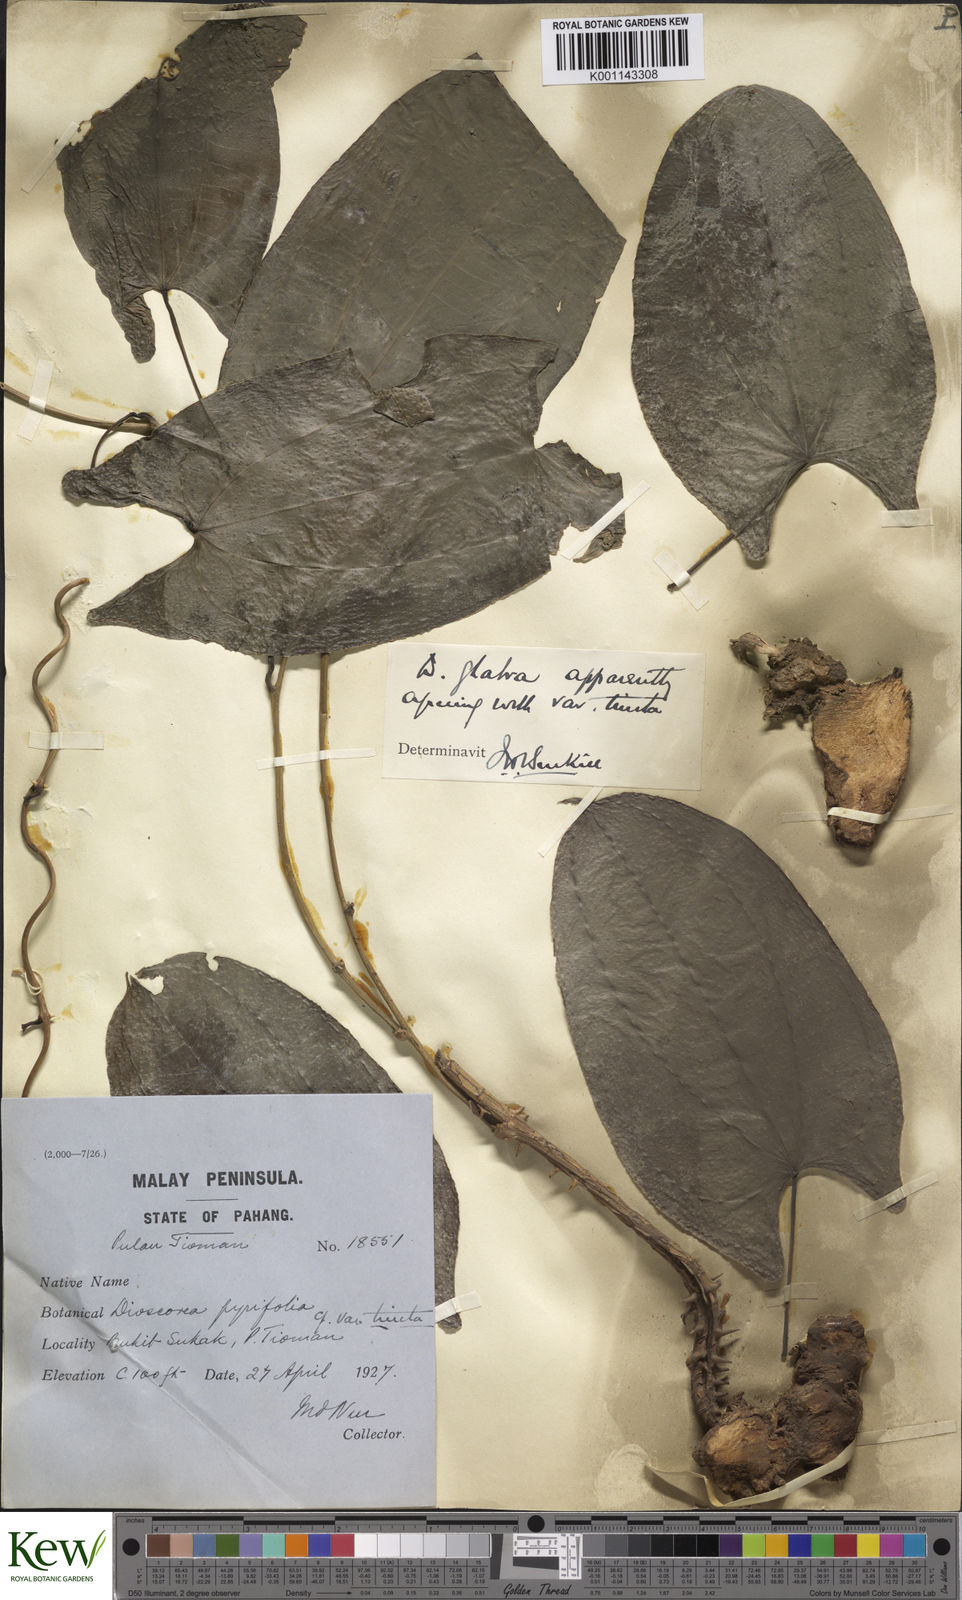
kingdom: Plantae
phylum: Tracheophyta
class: Liliopsida
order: Dioscoreales
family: Dioscoreaceae
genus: Dioscorea
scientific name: Dioscorea glabra
